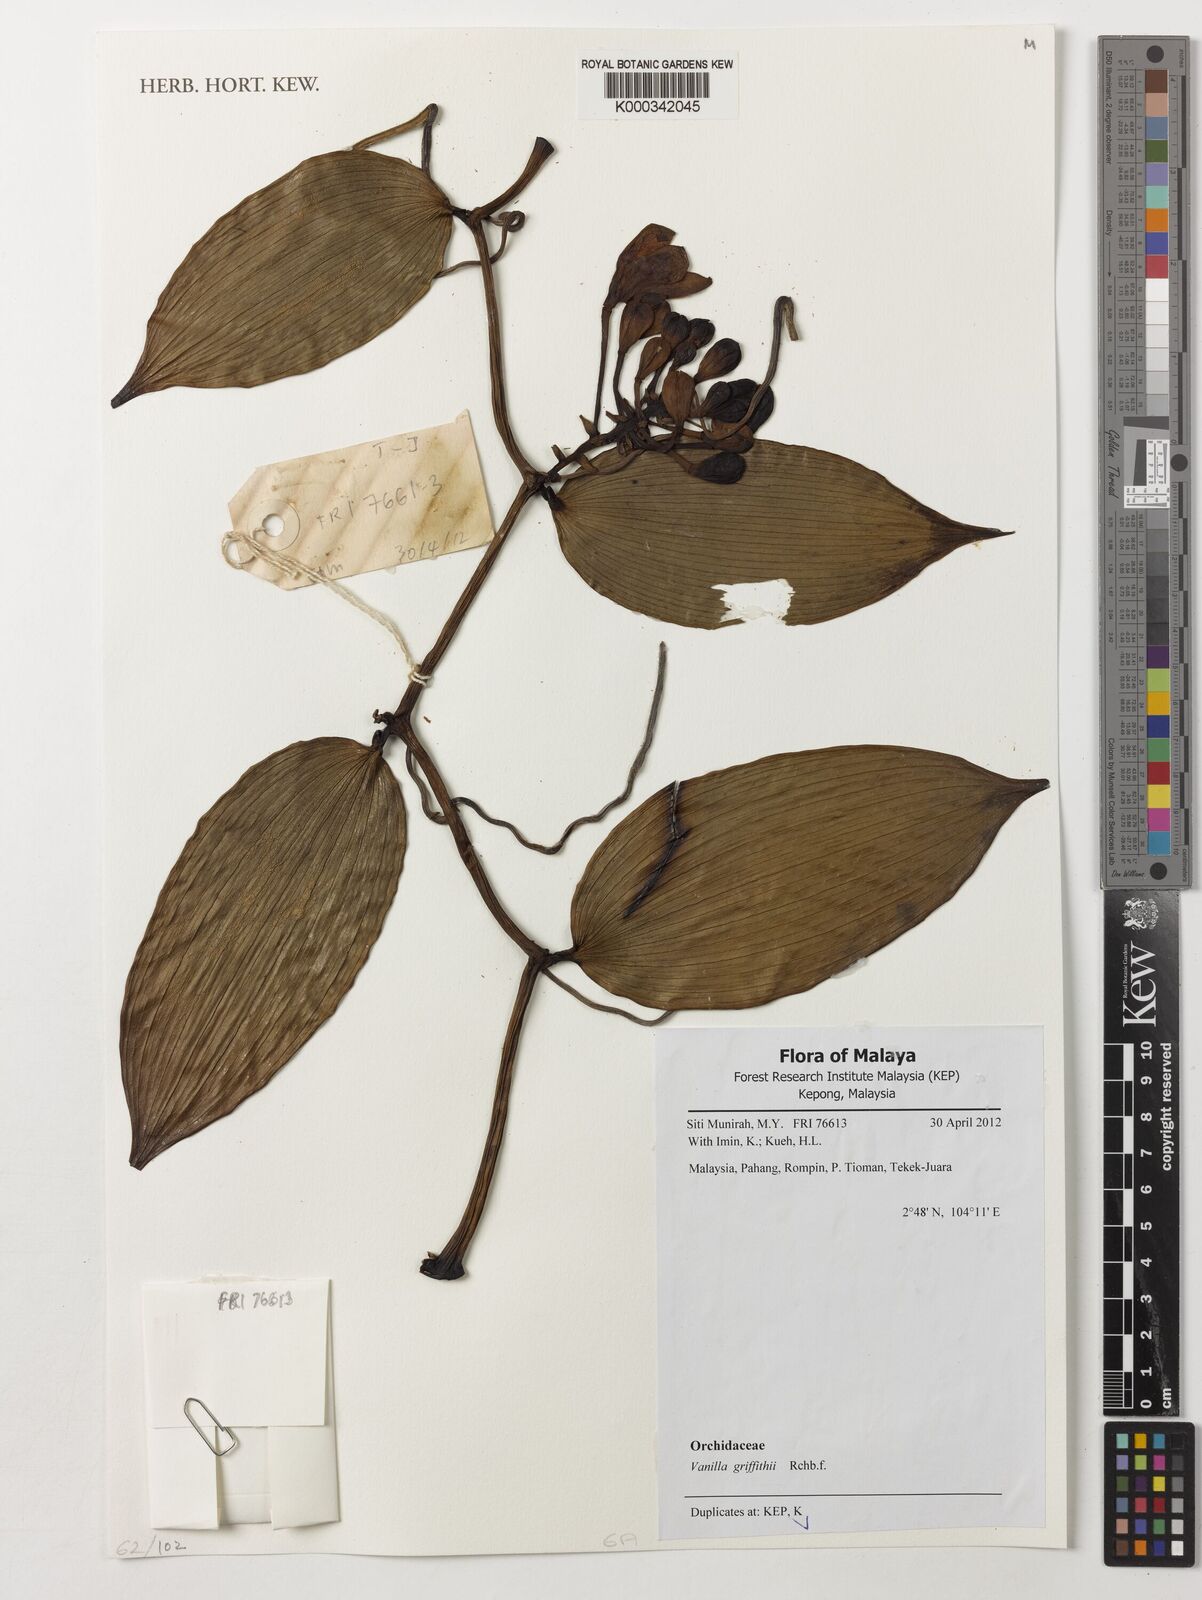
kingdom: Plantae
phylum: Tracheophyta
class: Liliopsida
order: Asparagales
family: Orchidaceae
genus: Vanilla
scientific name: Vanilla griffithii
